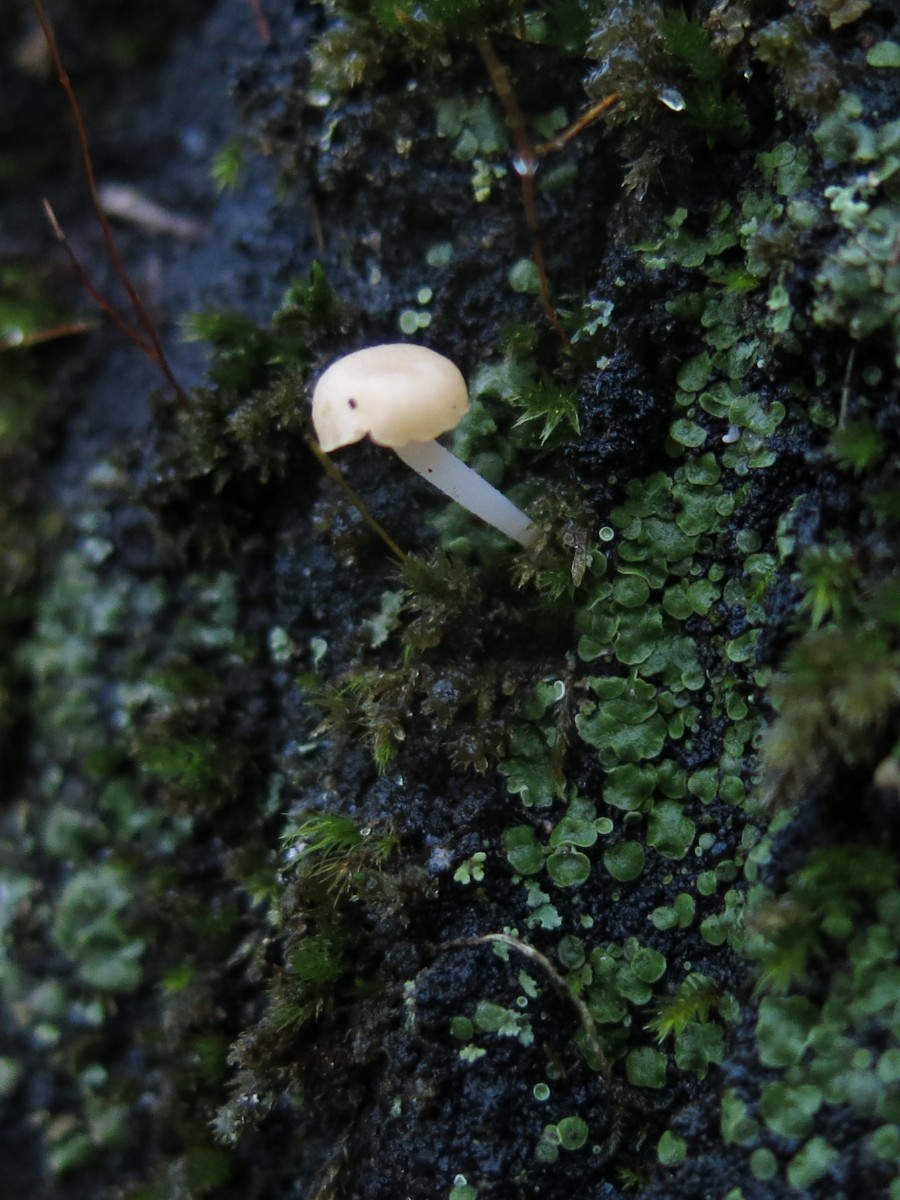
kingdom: Fungi
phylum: Basidiomycota
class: Agaricomycetes
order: Agaricales
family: Hygrophoraceae
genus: Lichenomphalia
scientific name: Lichenomphalia hudsoniana
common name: thallus-lavhat
